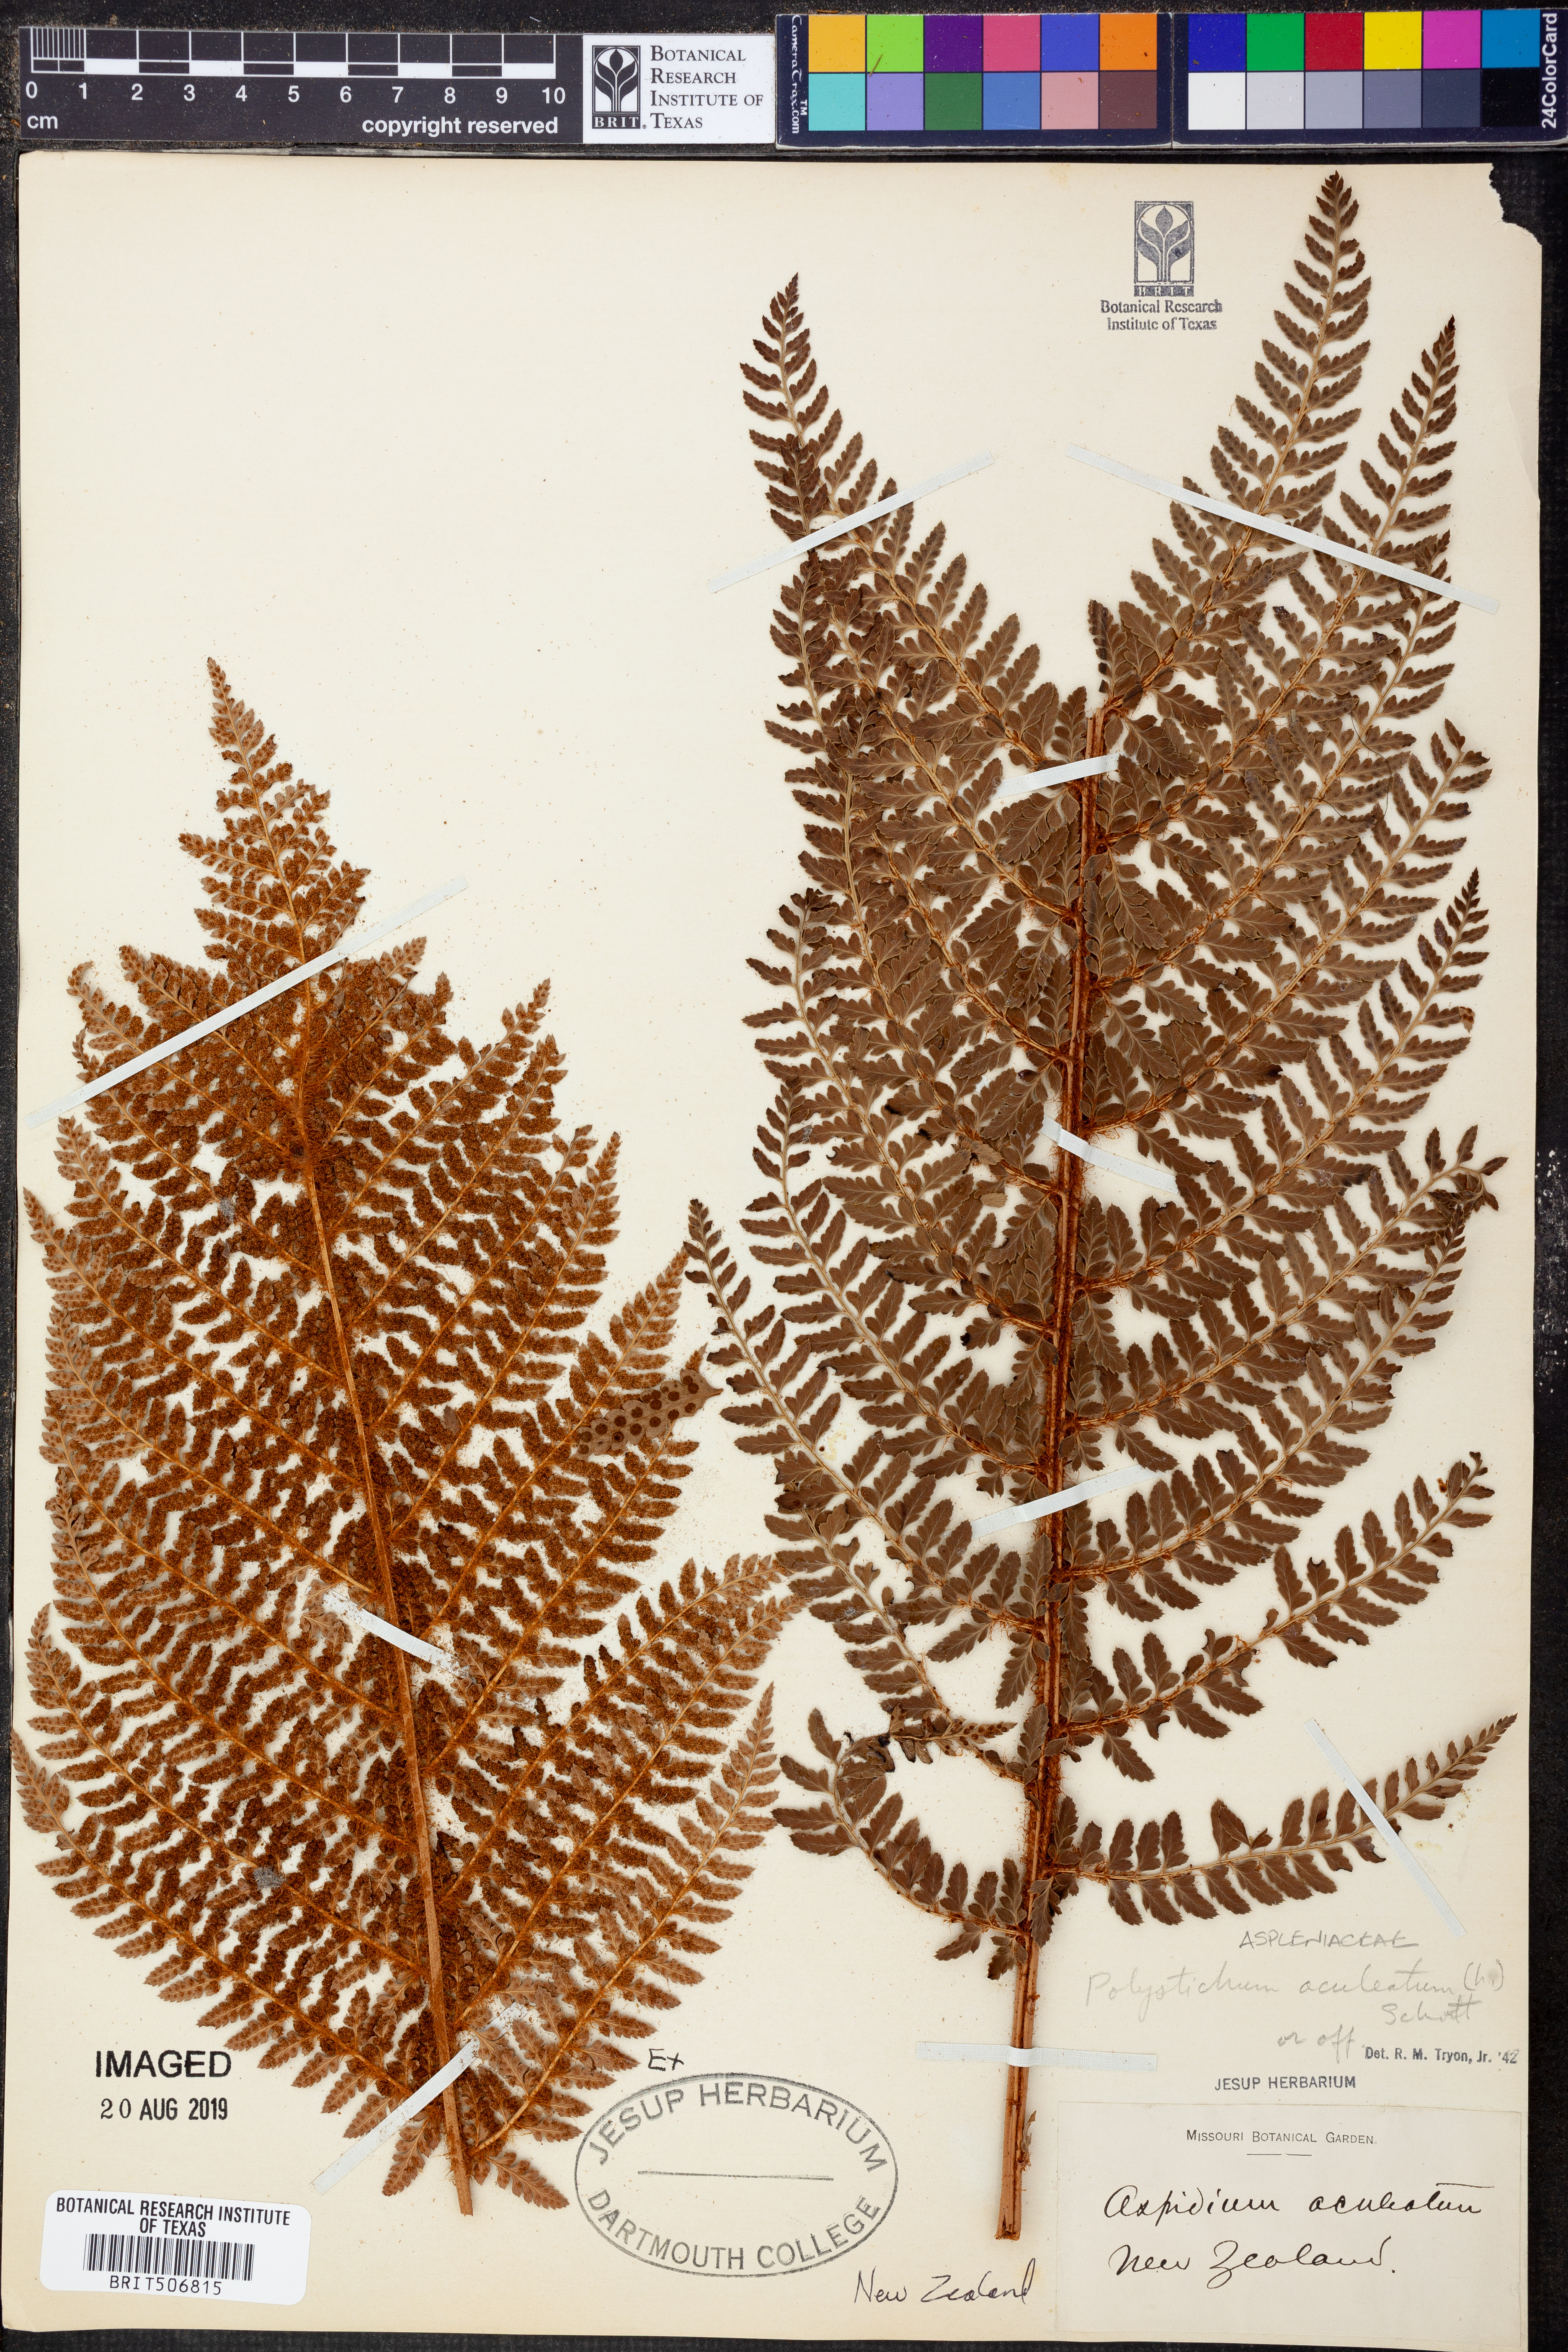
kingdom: Plantae
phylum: Tracheophyta
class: Polypodiopsida
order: Polypodiales
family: Dryopteridaceae
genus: Polystichum
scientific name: Polystichum aculeatum
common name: Hard shield-fern
